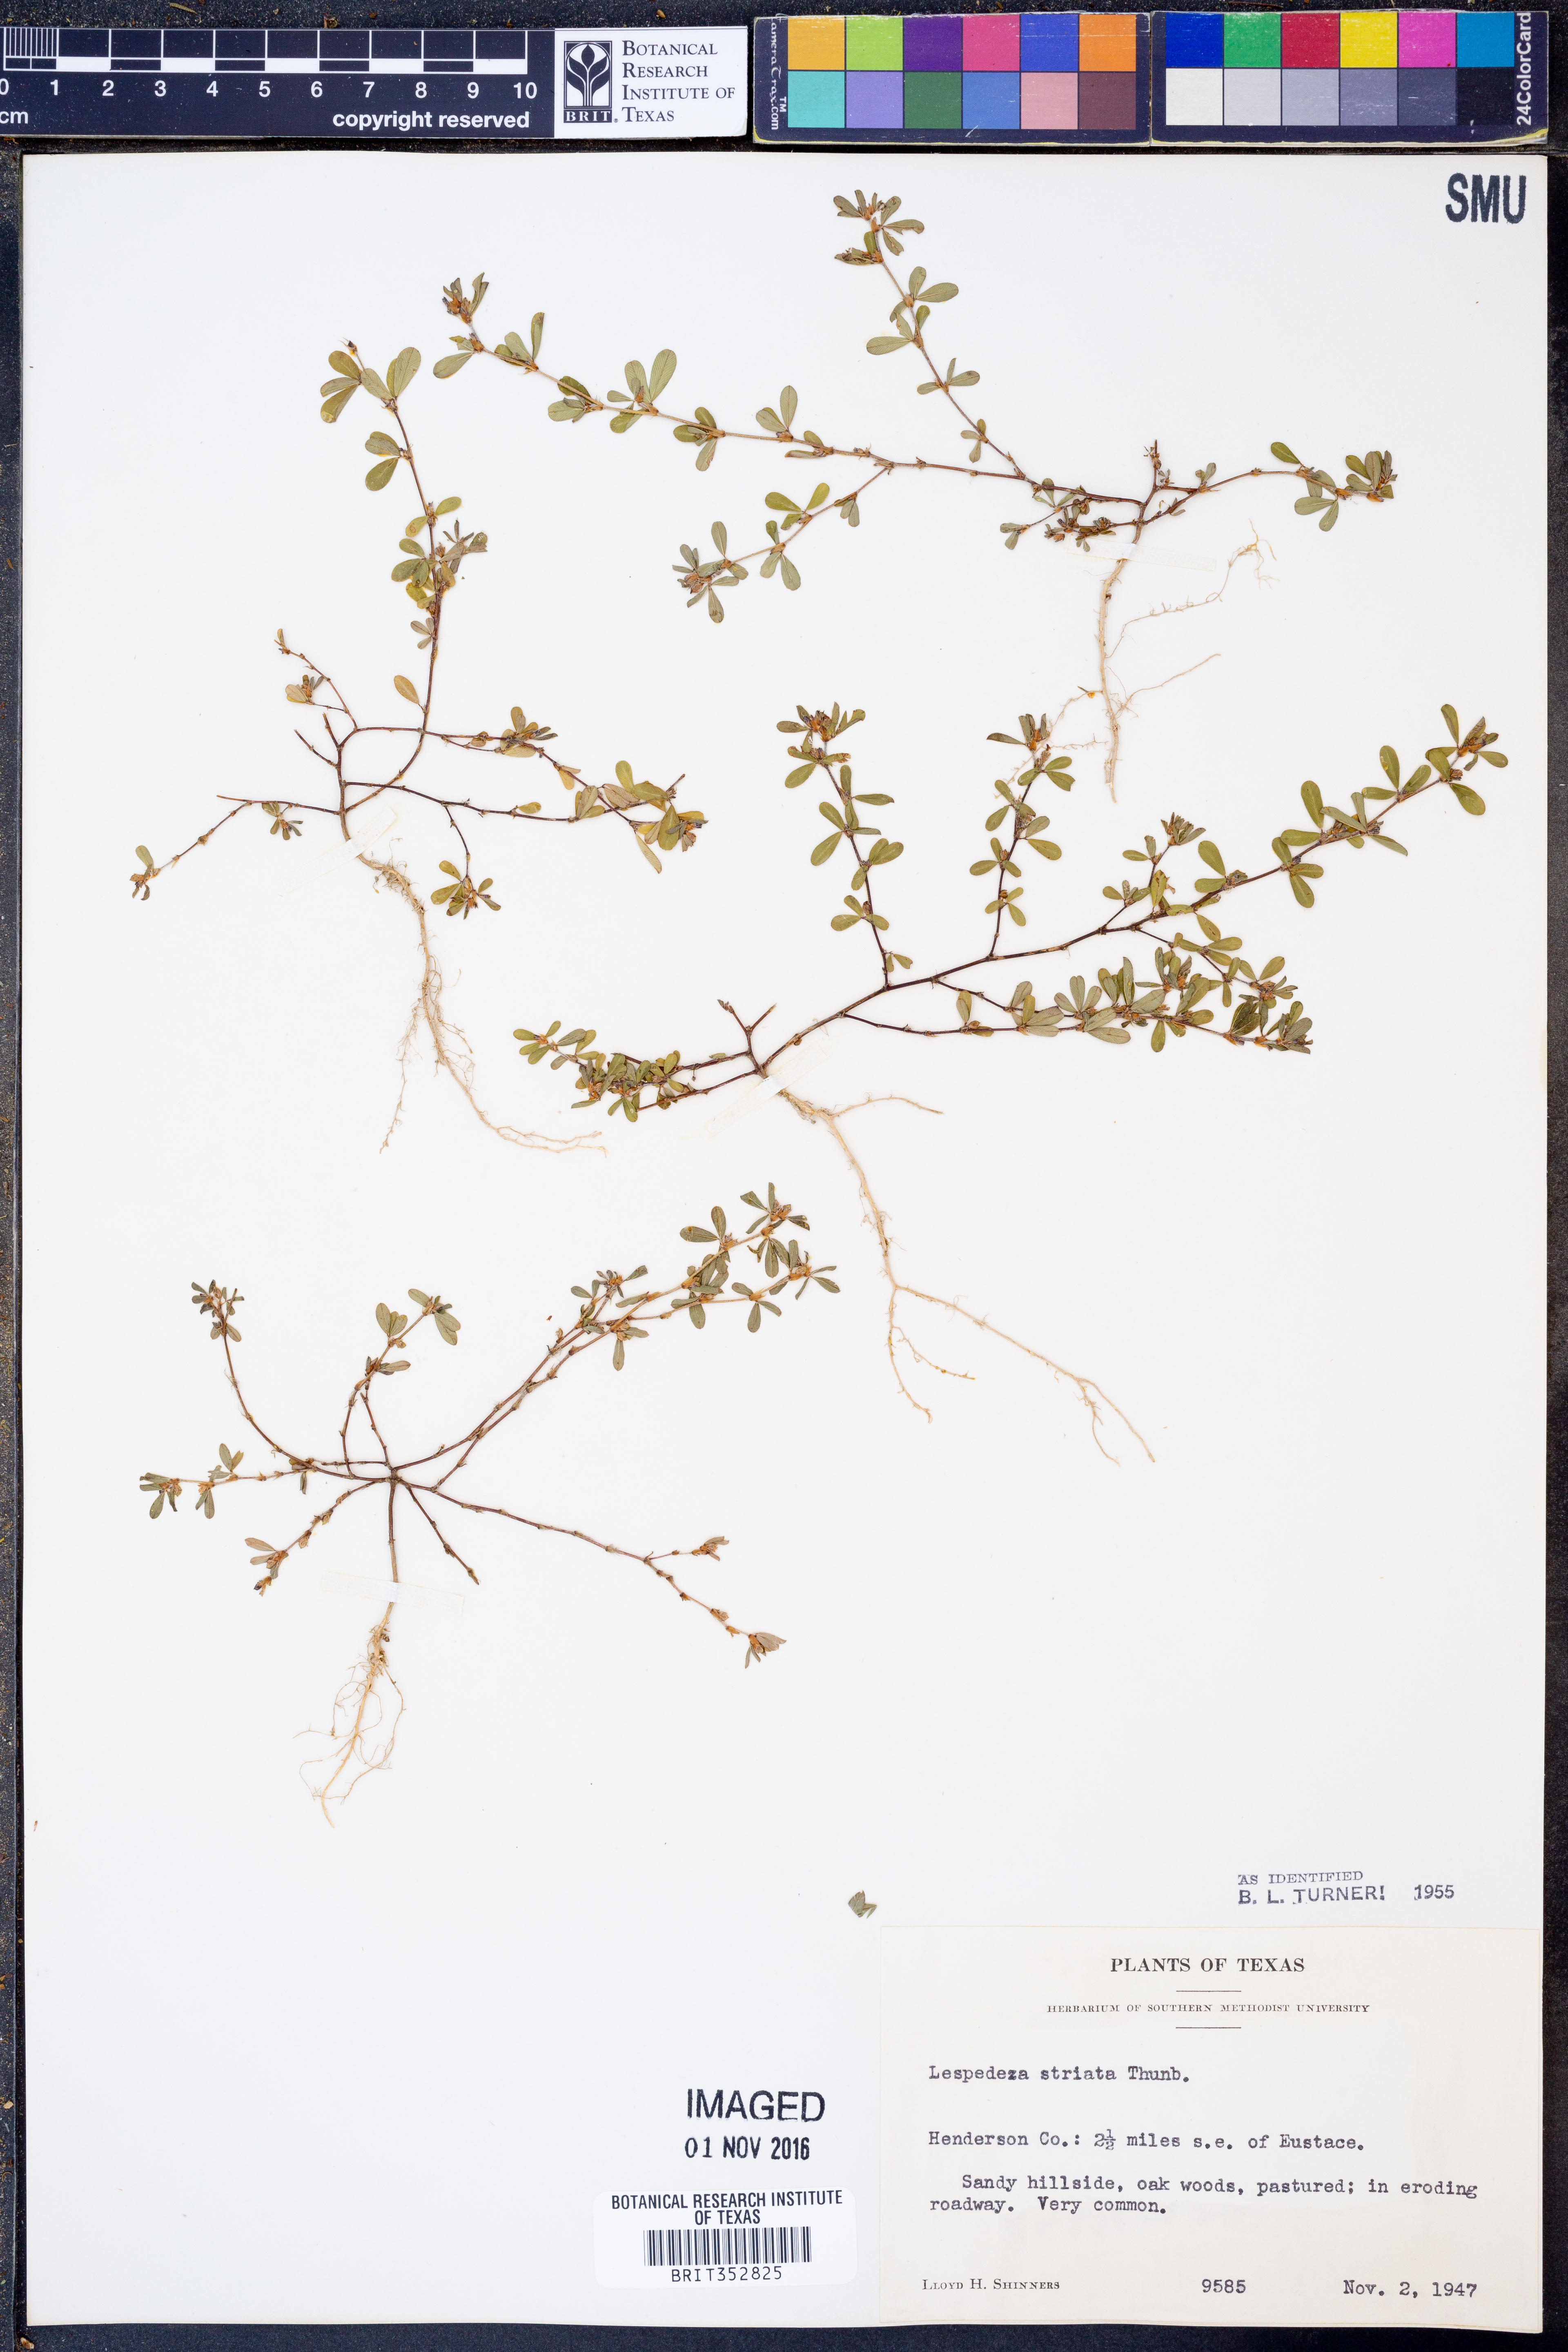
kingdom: Plantae
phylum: Tracheophyta
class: Magnoliopsida
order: Fabales
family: Fabaceae
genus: Kummerowia
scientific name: Kummerowia striata
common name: Japanese clover
